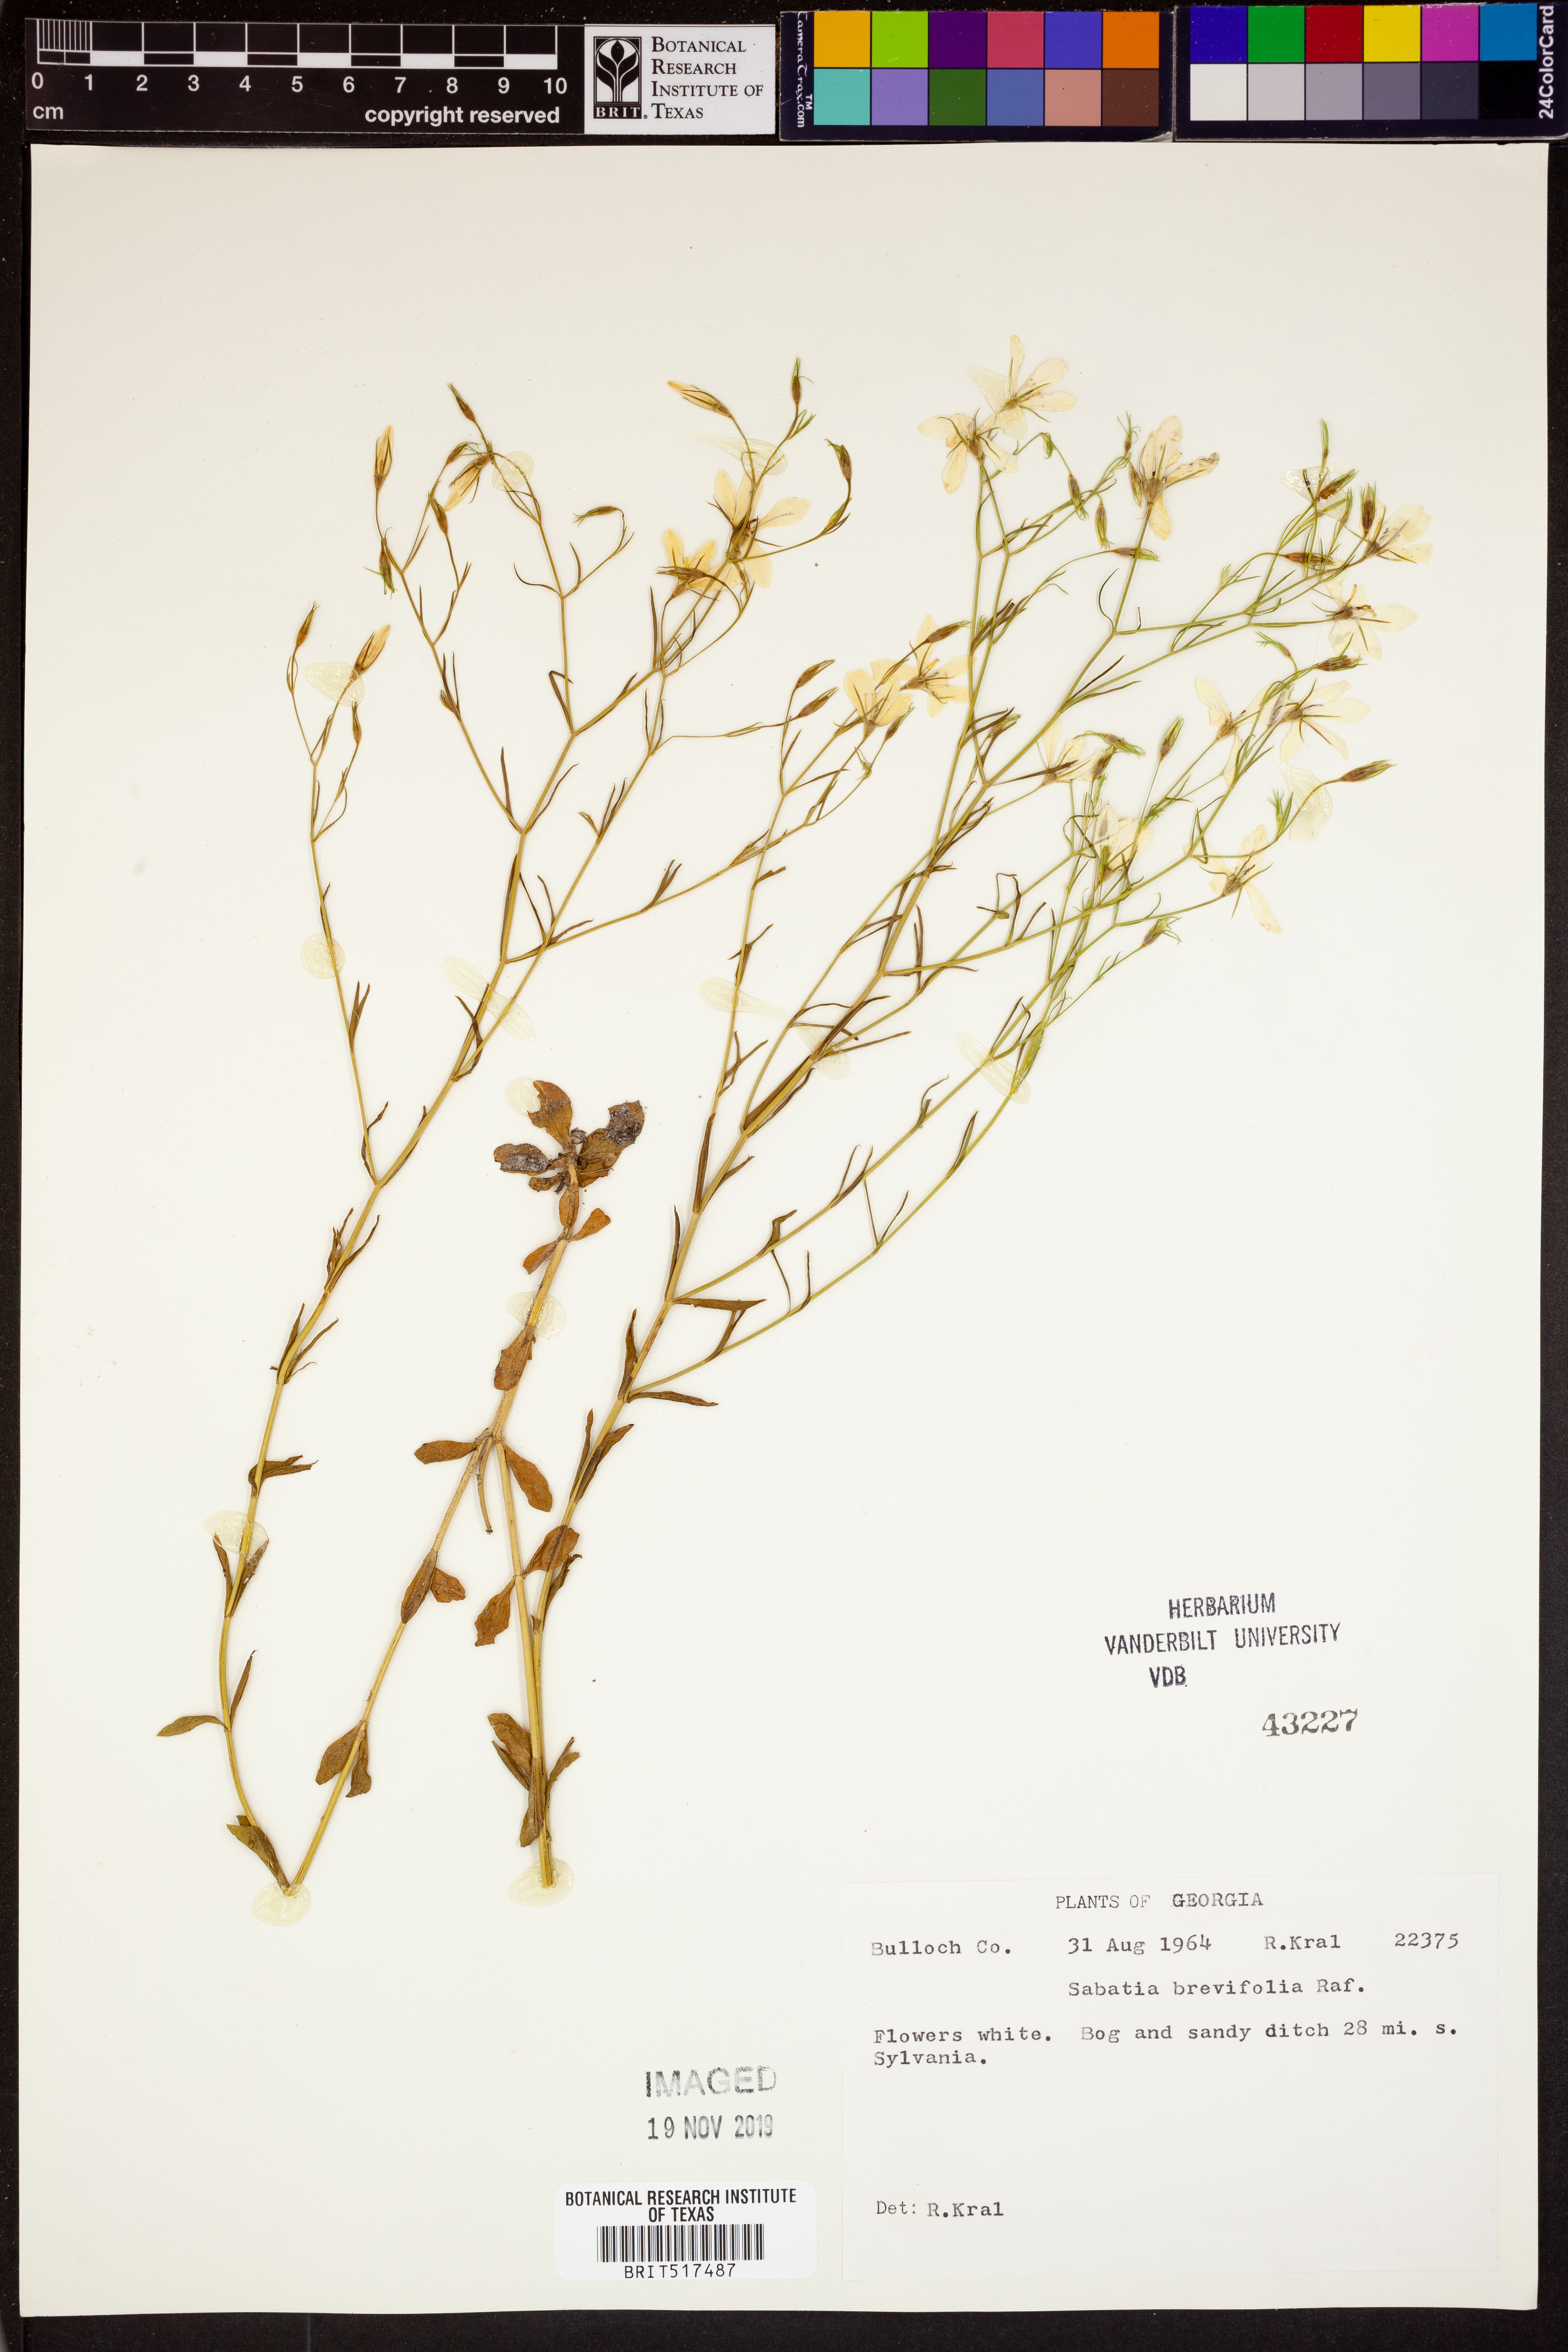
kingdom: Plantae
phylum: Tracheophyta
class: Magnoliopsida
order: Gentianales
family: Gentianaceae
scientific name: Gentianaceae
